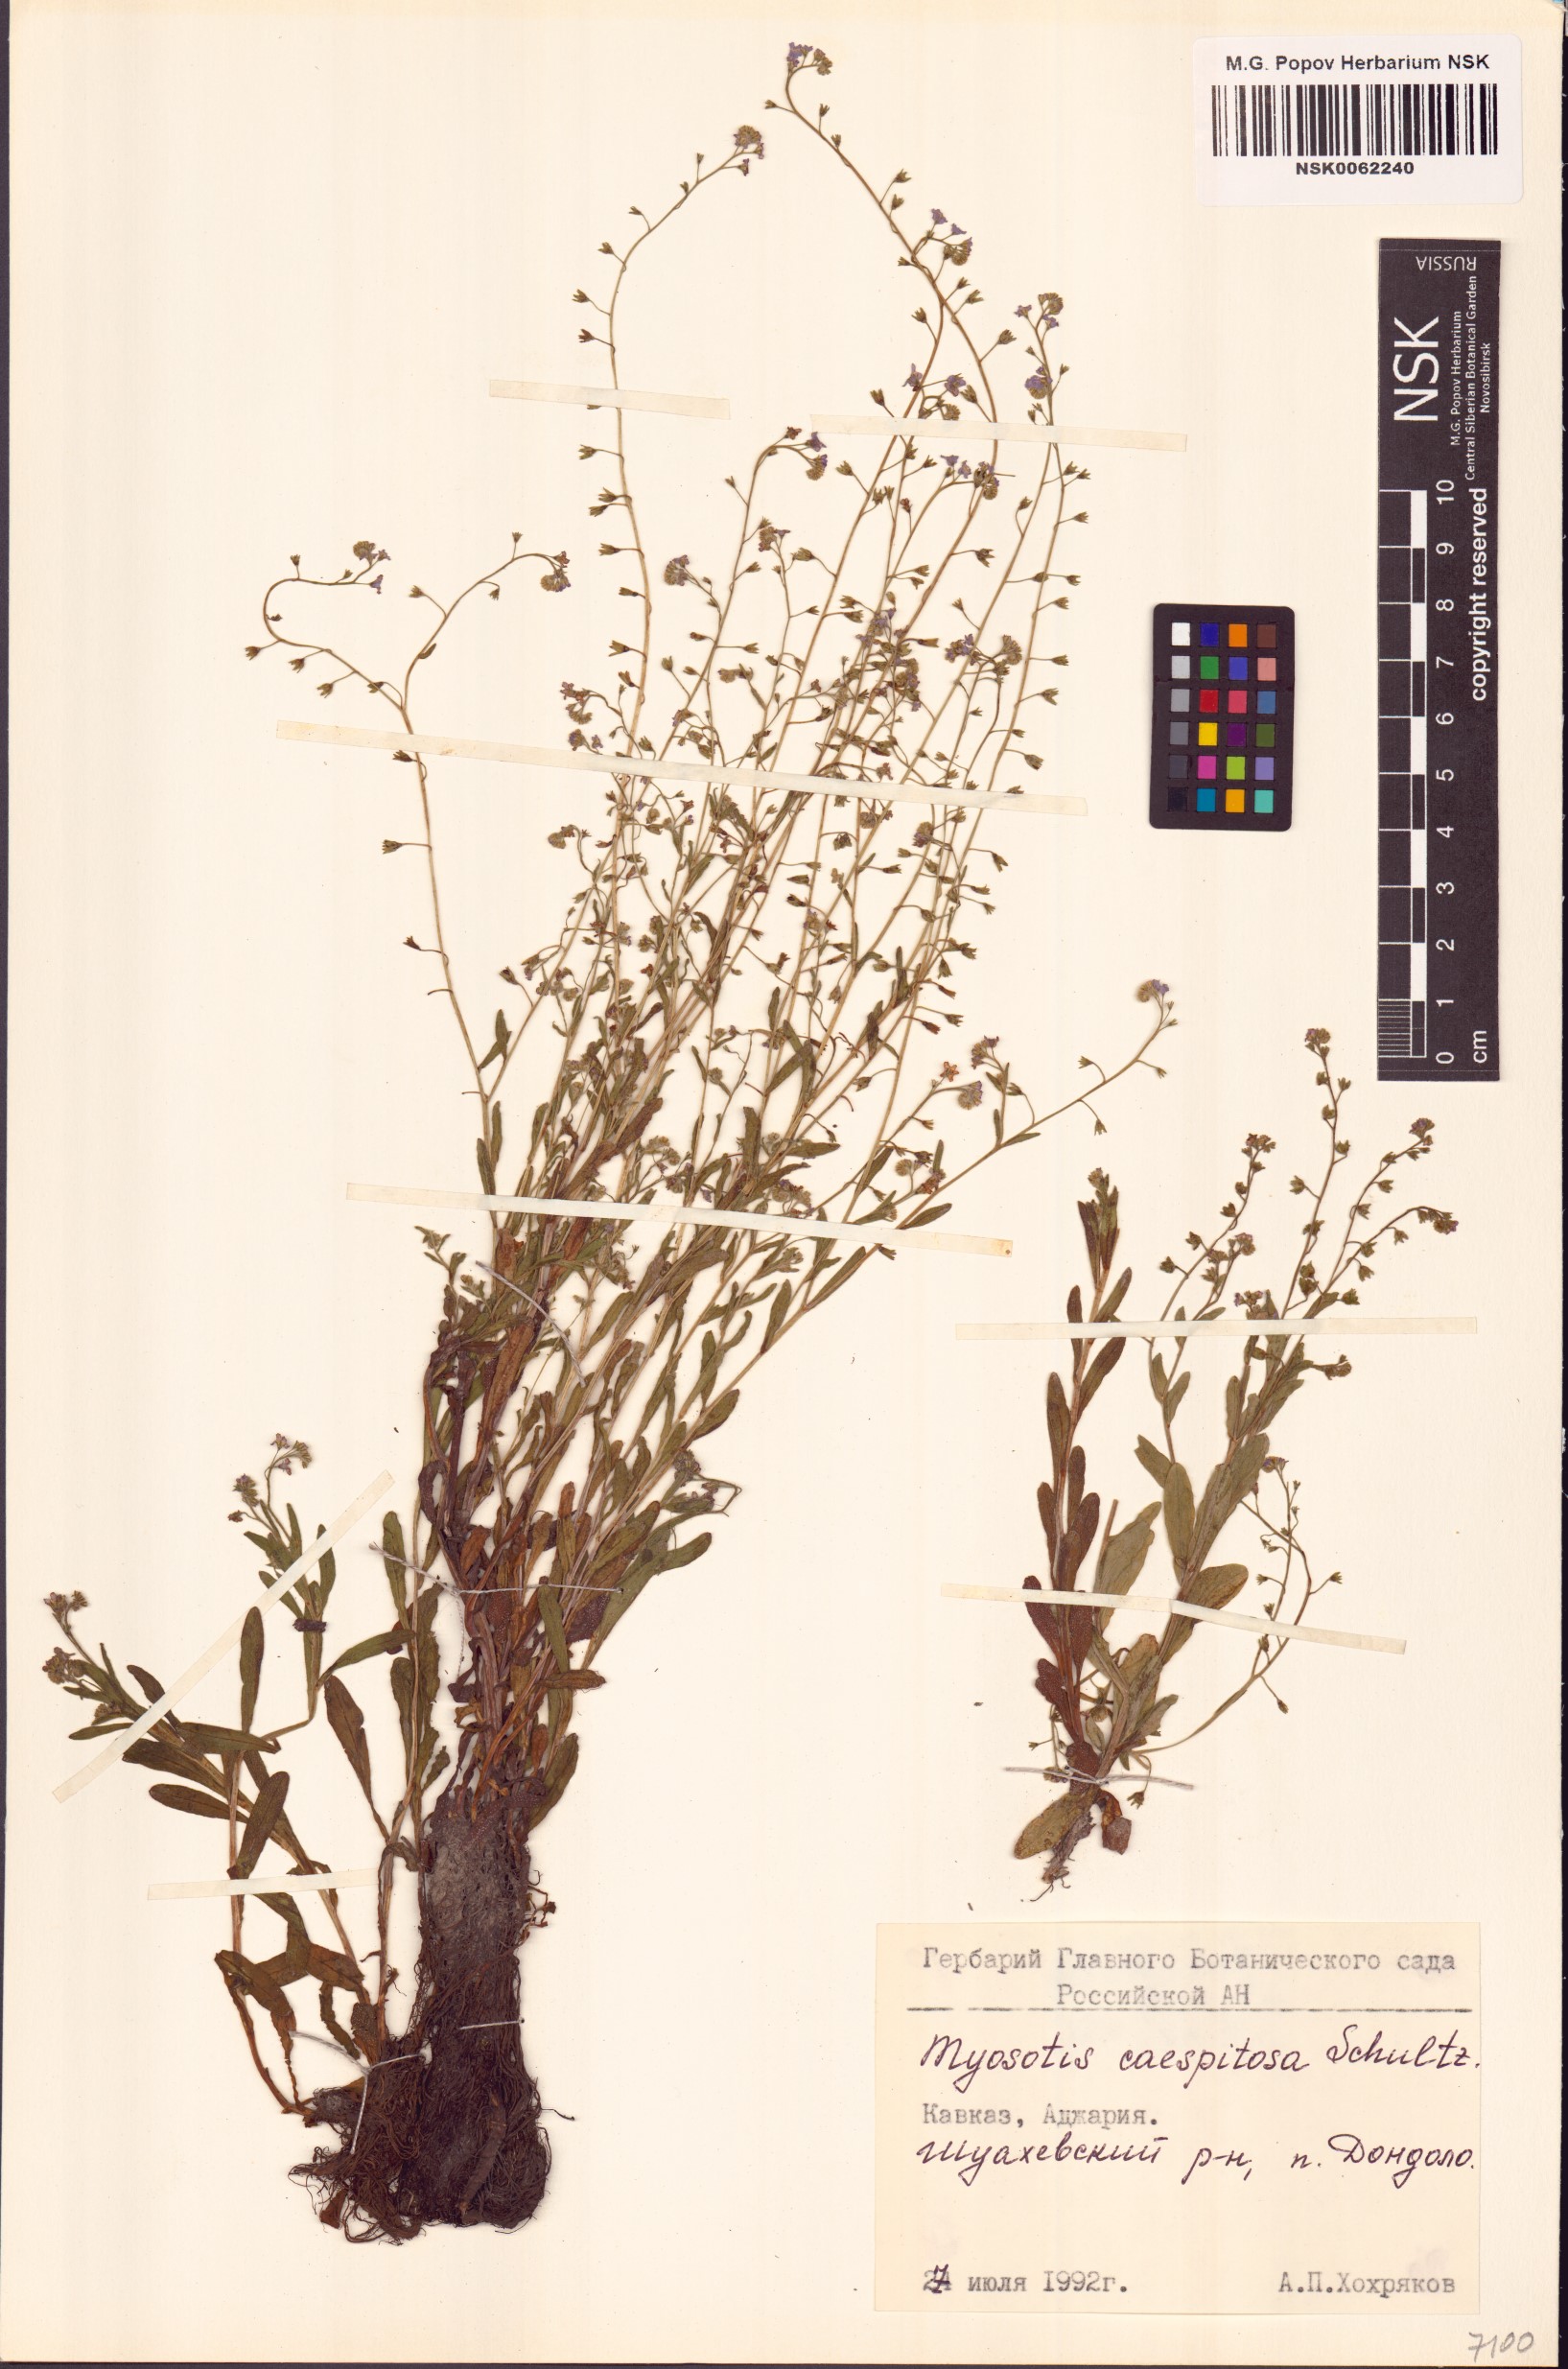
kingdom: Plantae
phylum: Tracheophyta
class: Magnoliopsida
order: Boraginales
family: Boraginaceae
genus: Myosotis
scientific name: Myosotis laxa
